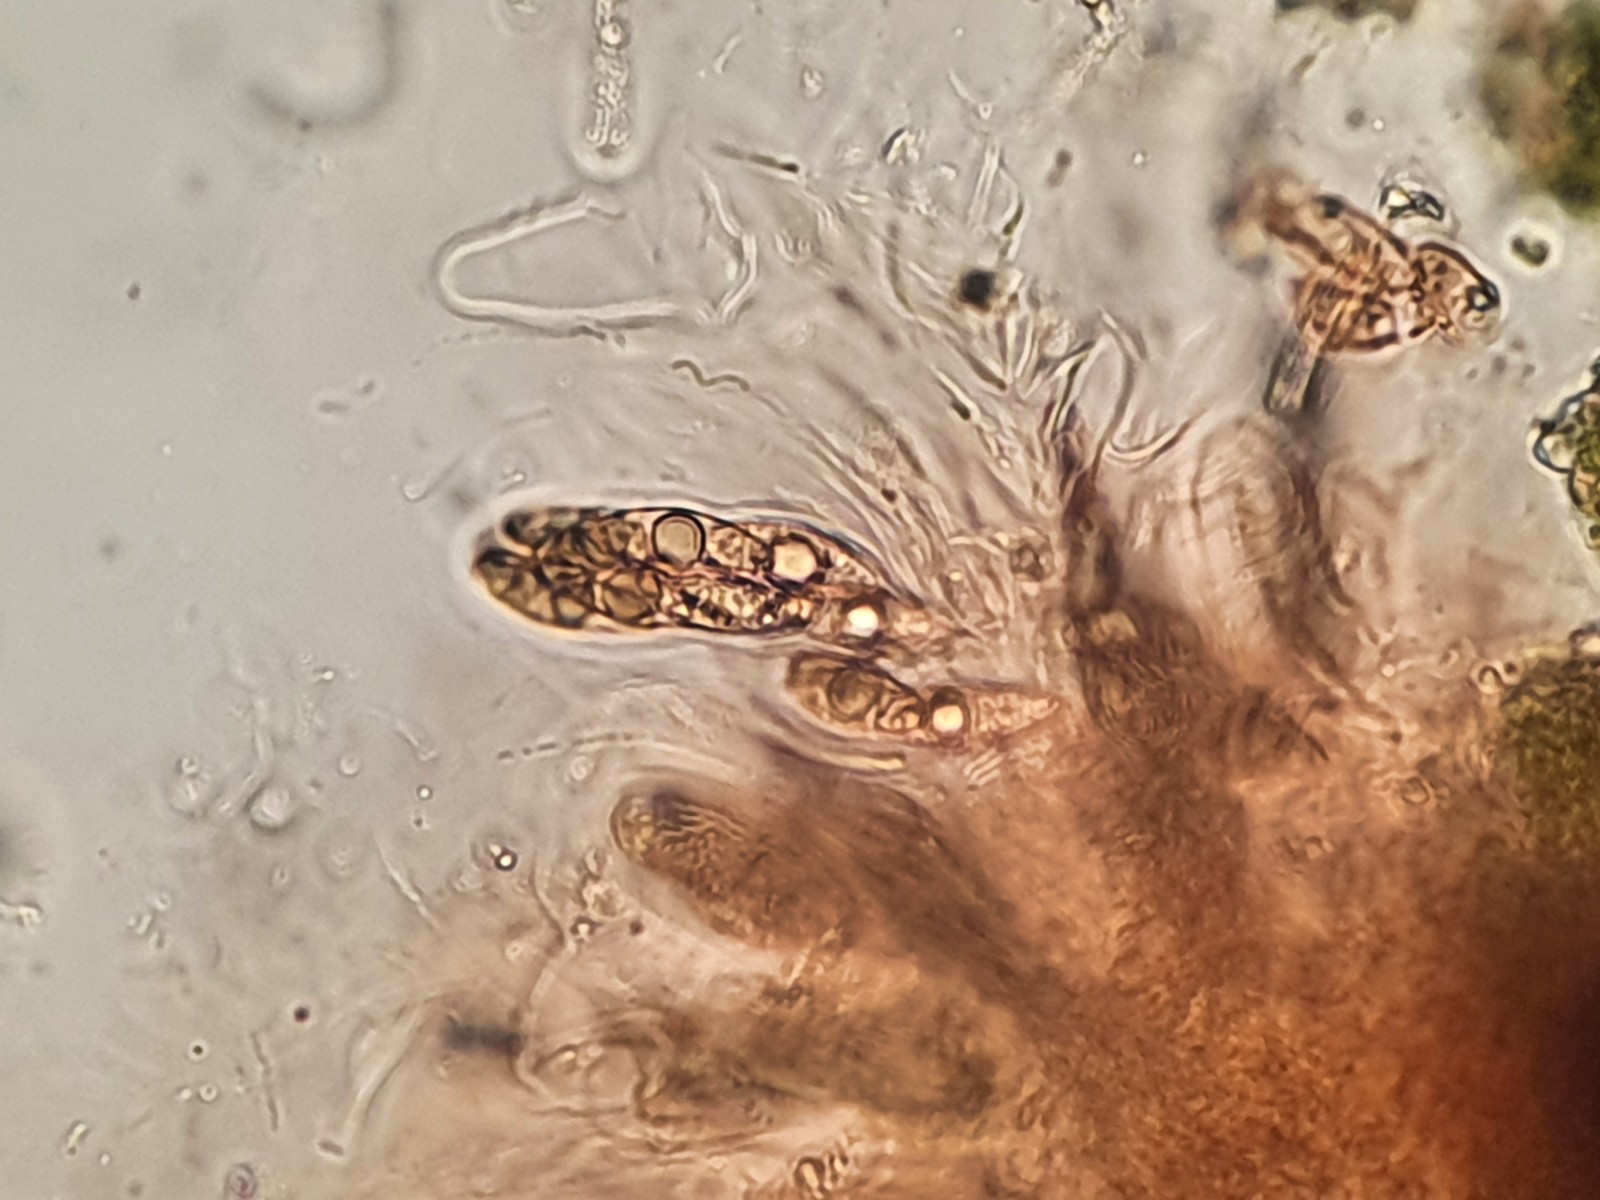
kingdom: Fungi
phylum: Ascomycota
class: Eurotiomycetes
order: Verrucariales
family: Verrucariaceae
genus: Verrucaria
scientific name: Verrucaria bryoctona
